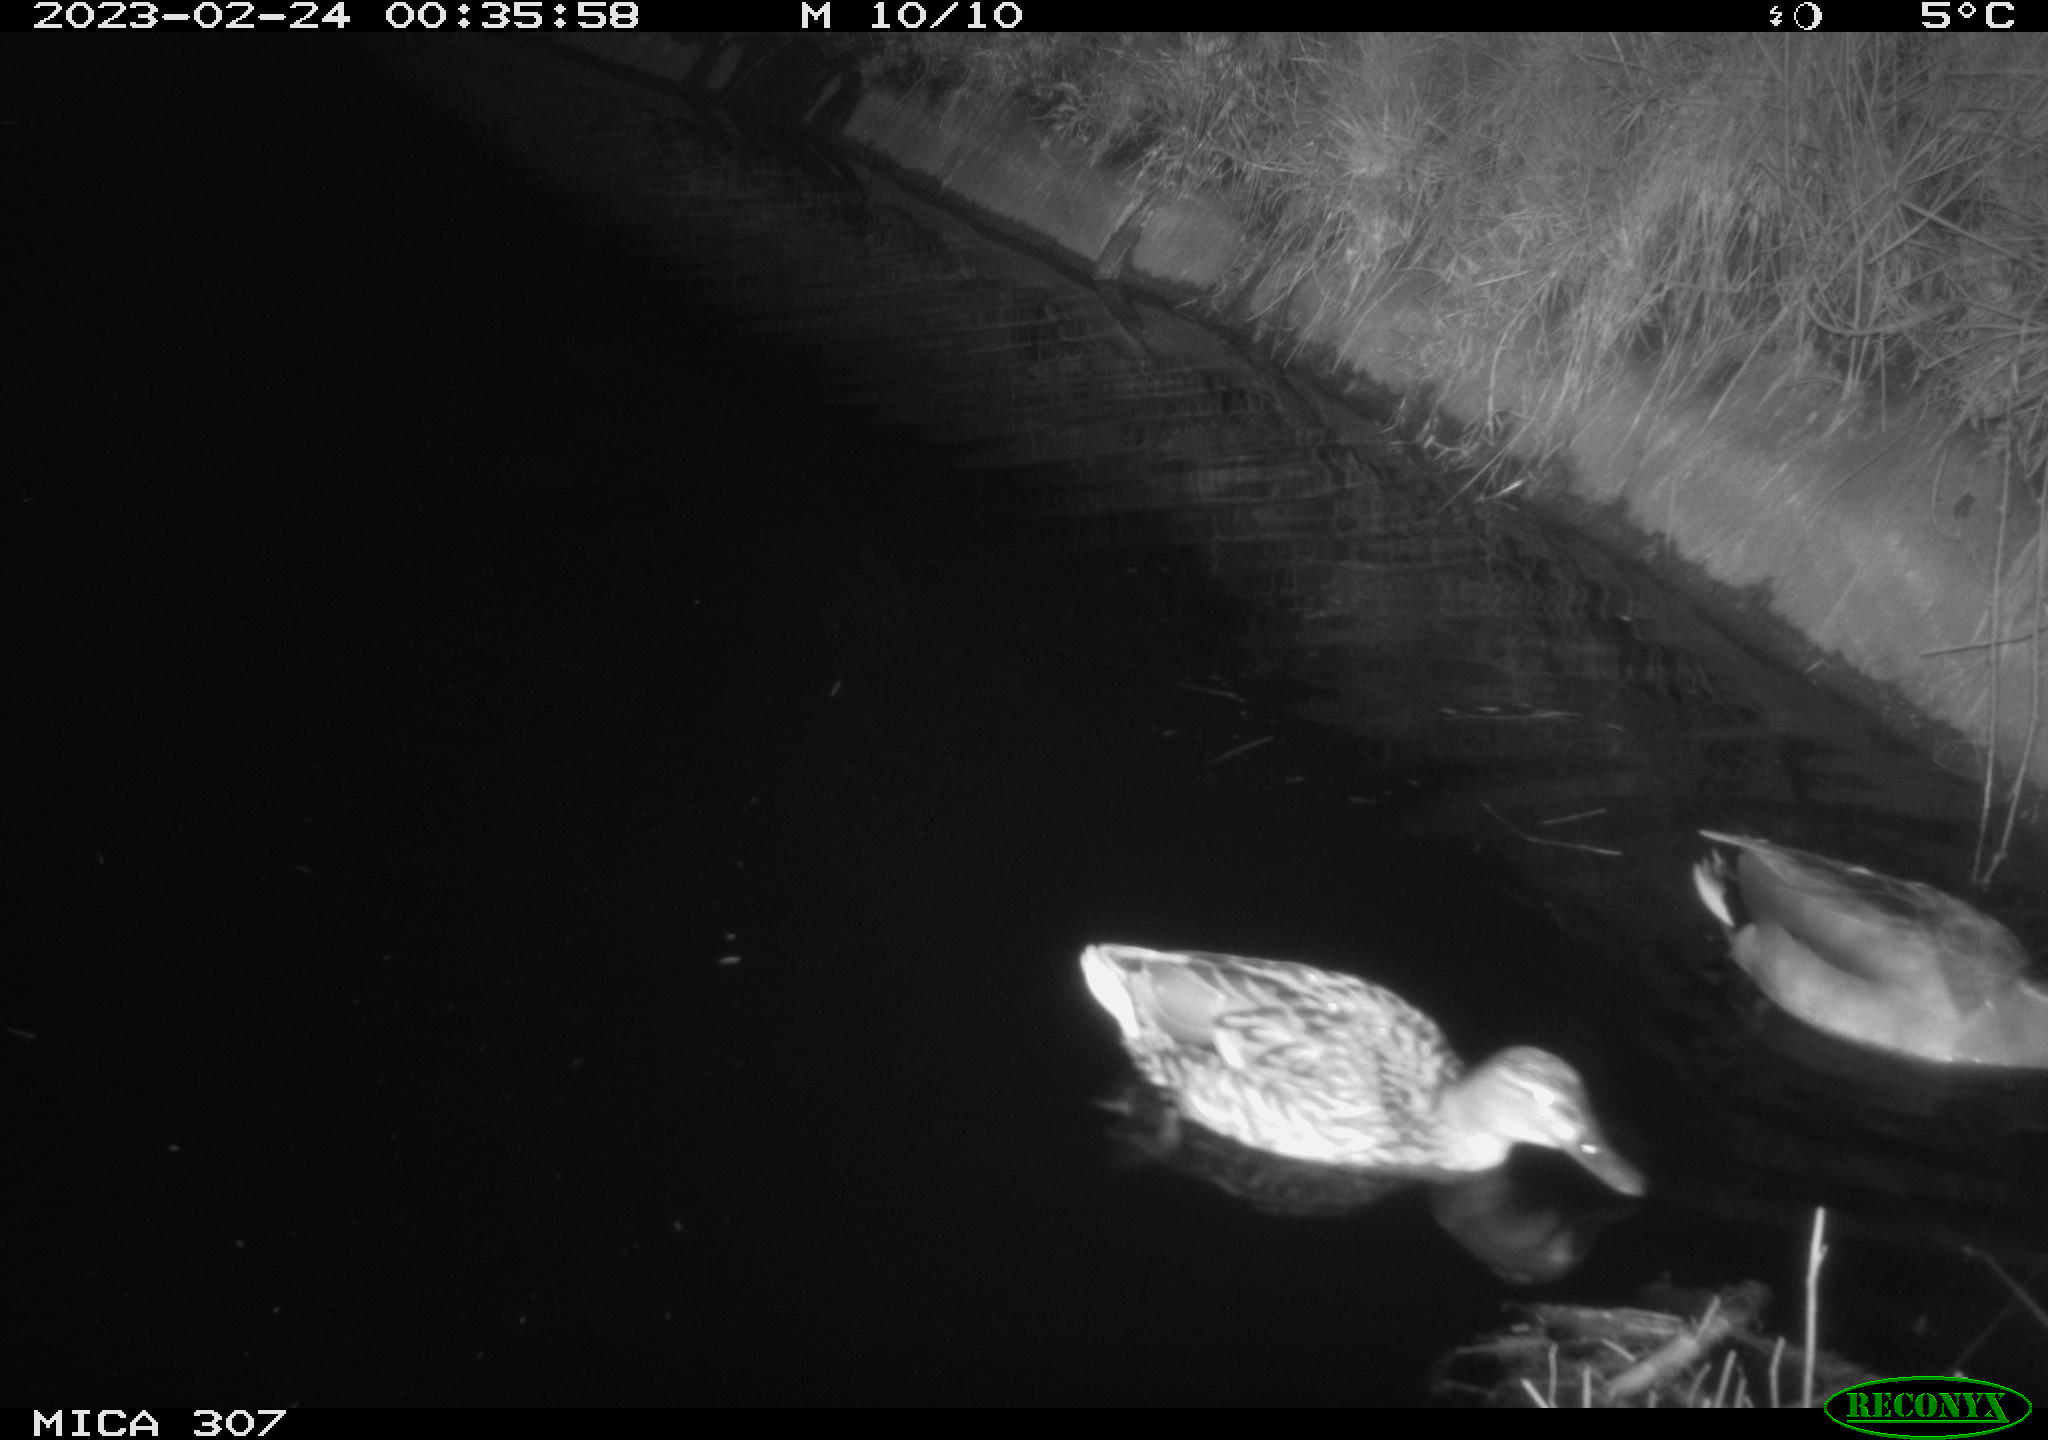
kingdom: Animalia
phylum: Chordata
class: Aves
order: Anseriformes
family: Anatidae
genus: Anas
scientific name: Anas
